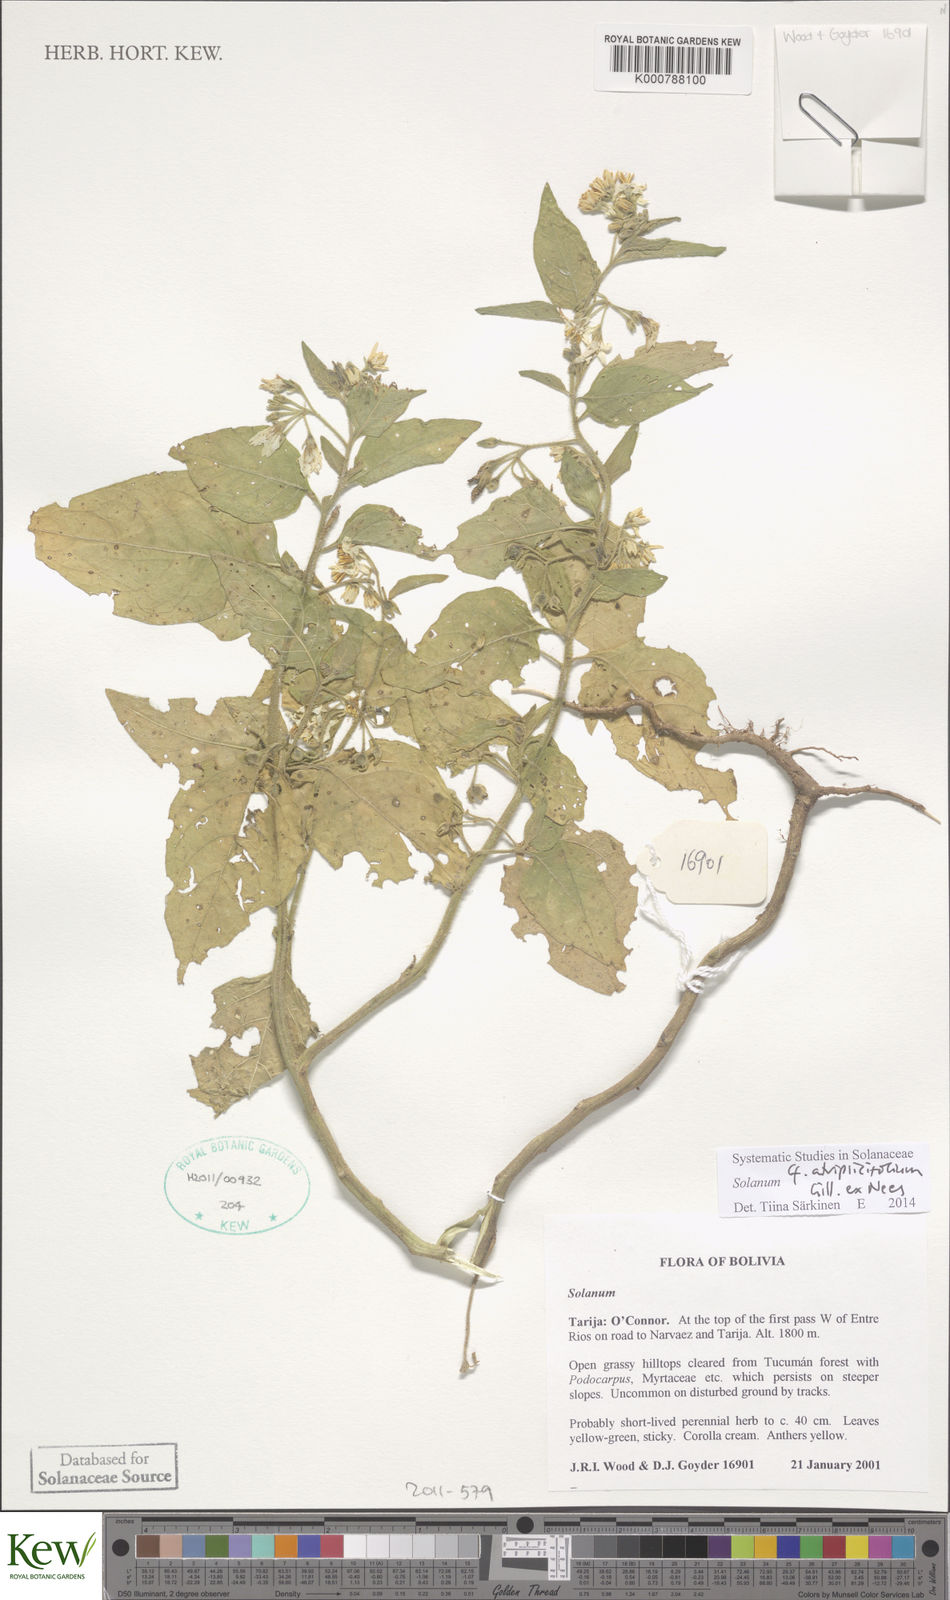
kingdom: Plantae
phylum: Tracheophyta
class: Magnoliopsida
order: Solanales
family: Solanaceae
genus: Solanum
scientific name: Solanum tweedianum
